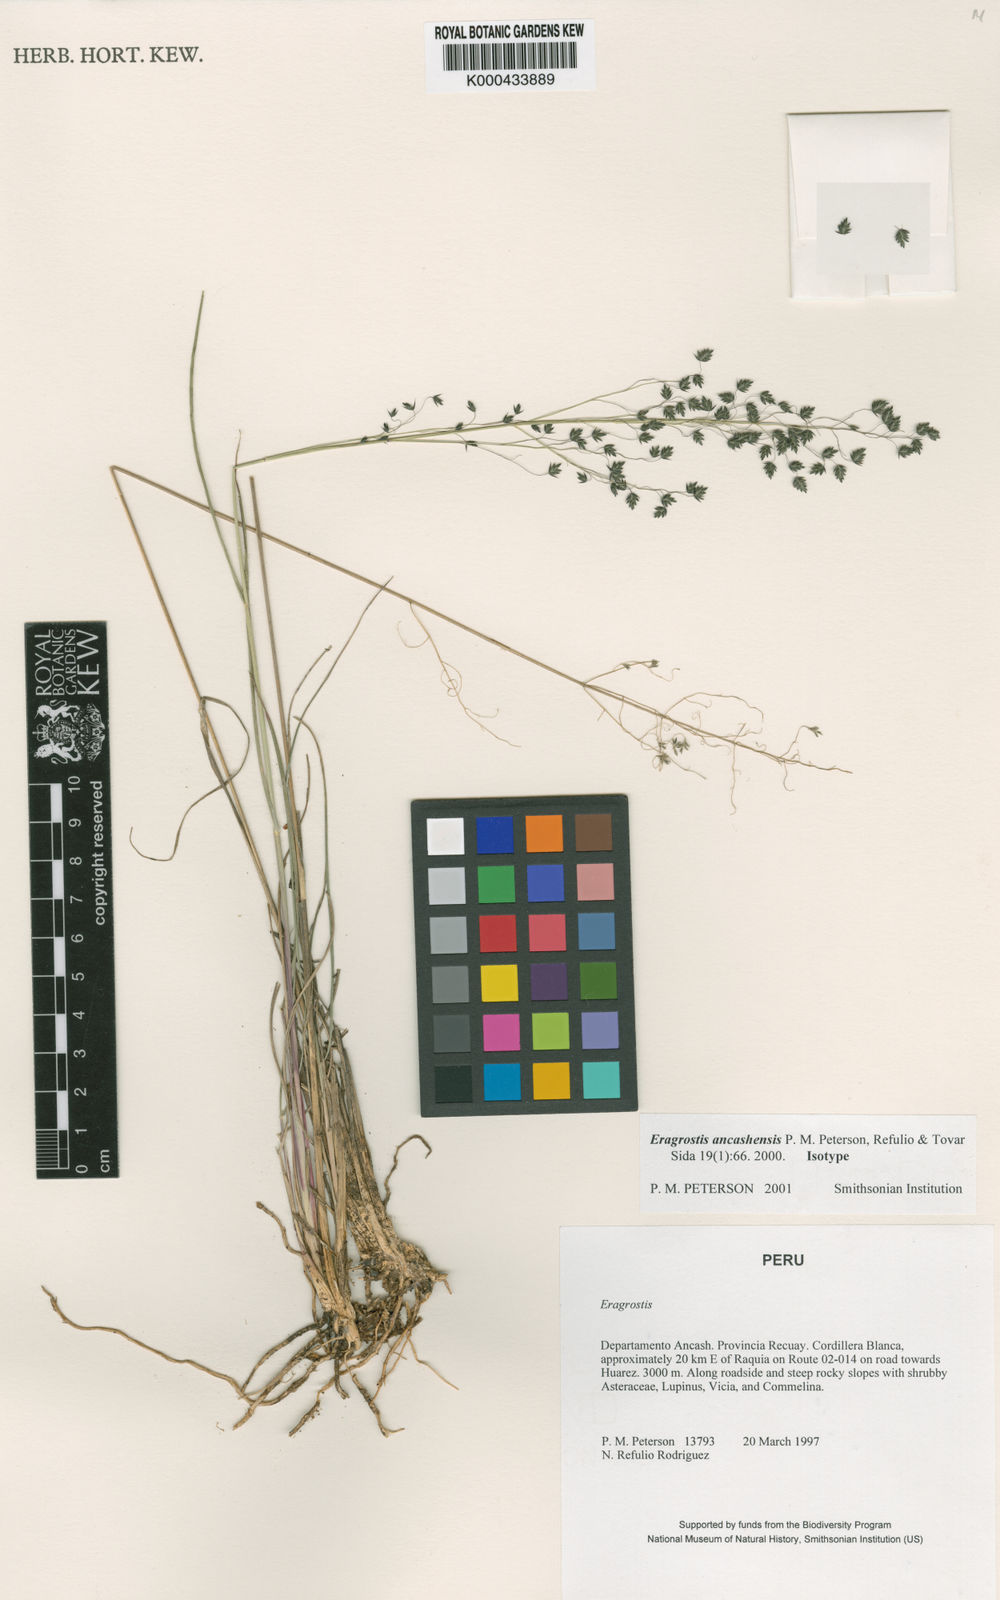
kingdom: Plantae
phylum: Tracheophyta
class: Liliopsida
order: Poales
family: Poaceae
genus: Eragrostis
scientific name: Eragrostis
